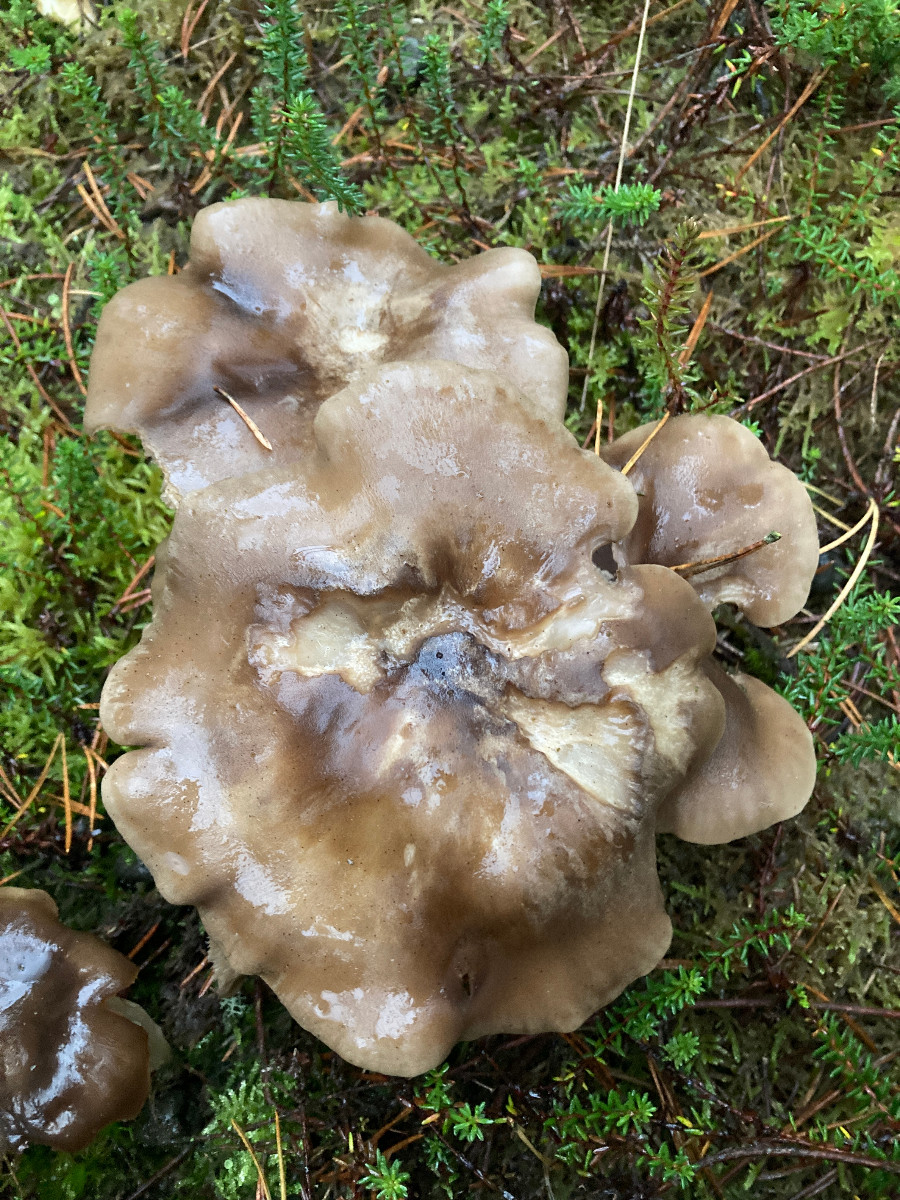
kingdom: Fungi
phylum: Basidiomycota
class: Agaricomycetes
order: Agaricales
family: Lyophyllaceae
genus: Lyophyllum
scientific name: Lyophyllum shimeji
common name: shimeji-gråblad
